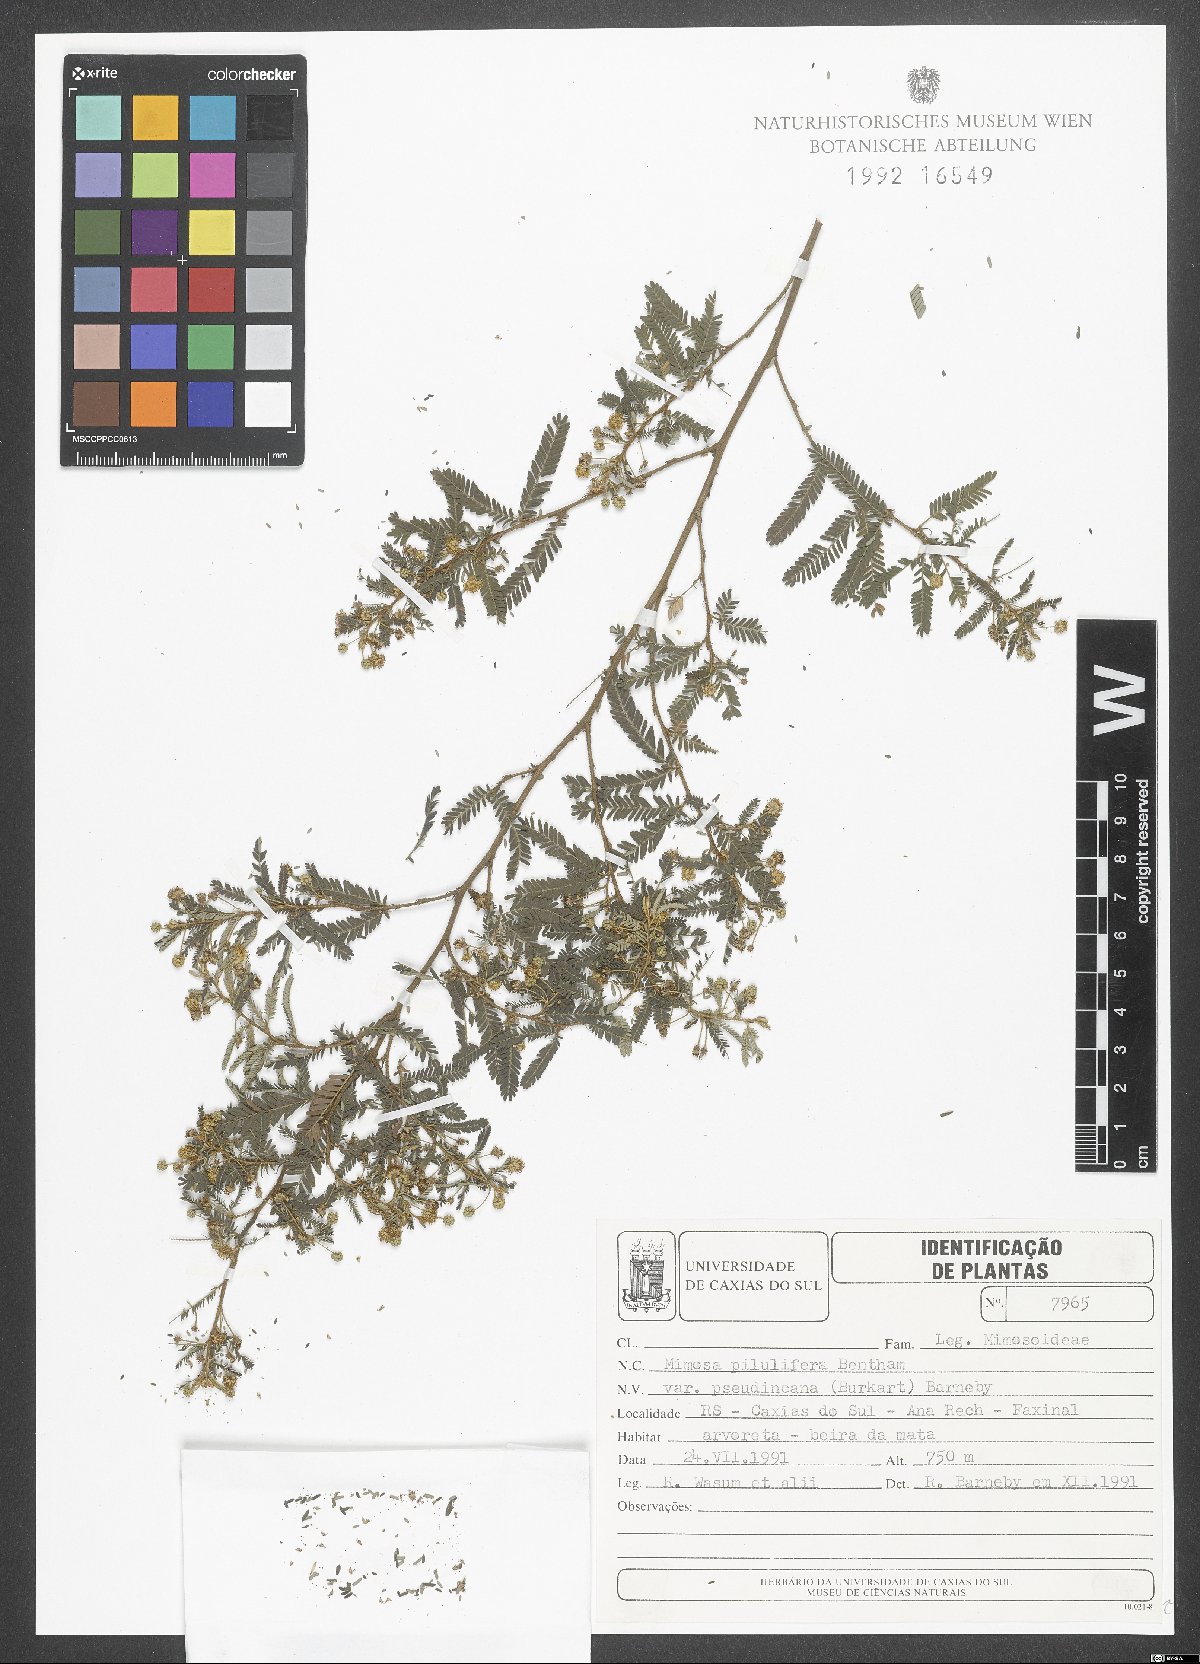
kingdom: Plantae
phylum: Tracheophyta
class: Magnoliopsida
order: Fabales
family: Fabaceae
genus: Mimosa
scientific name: Mimosa pilulifera
